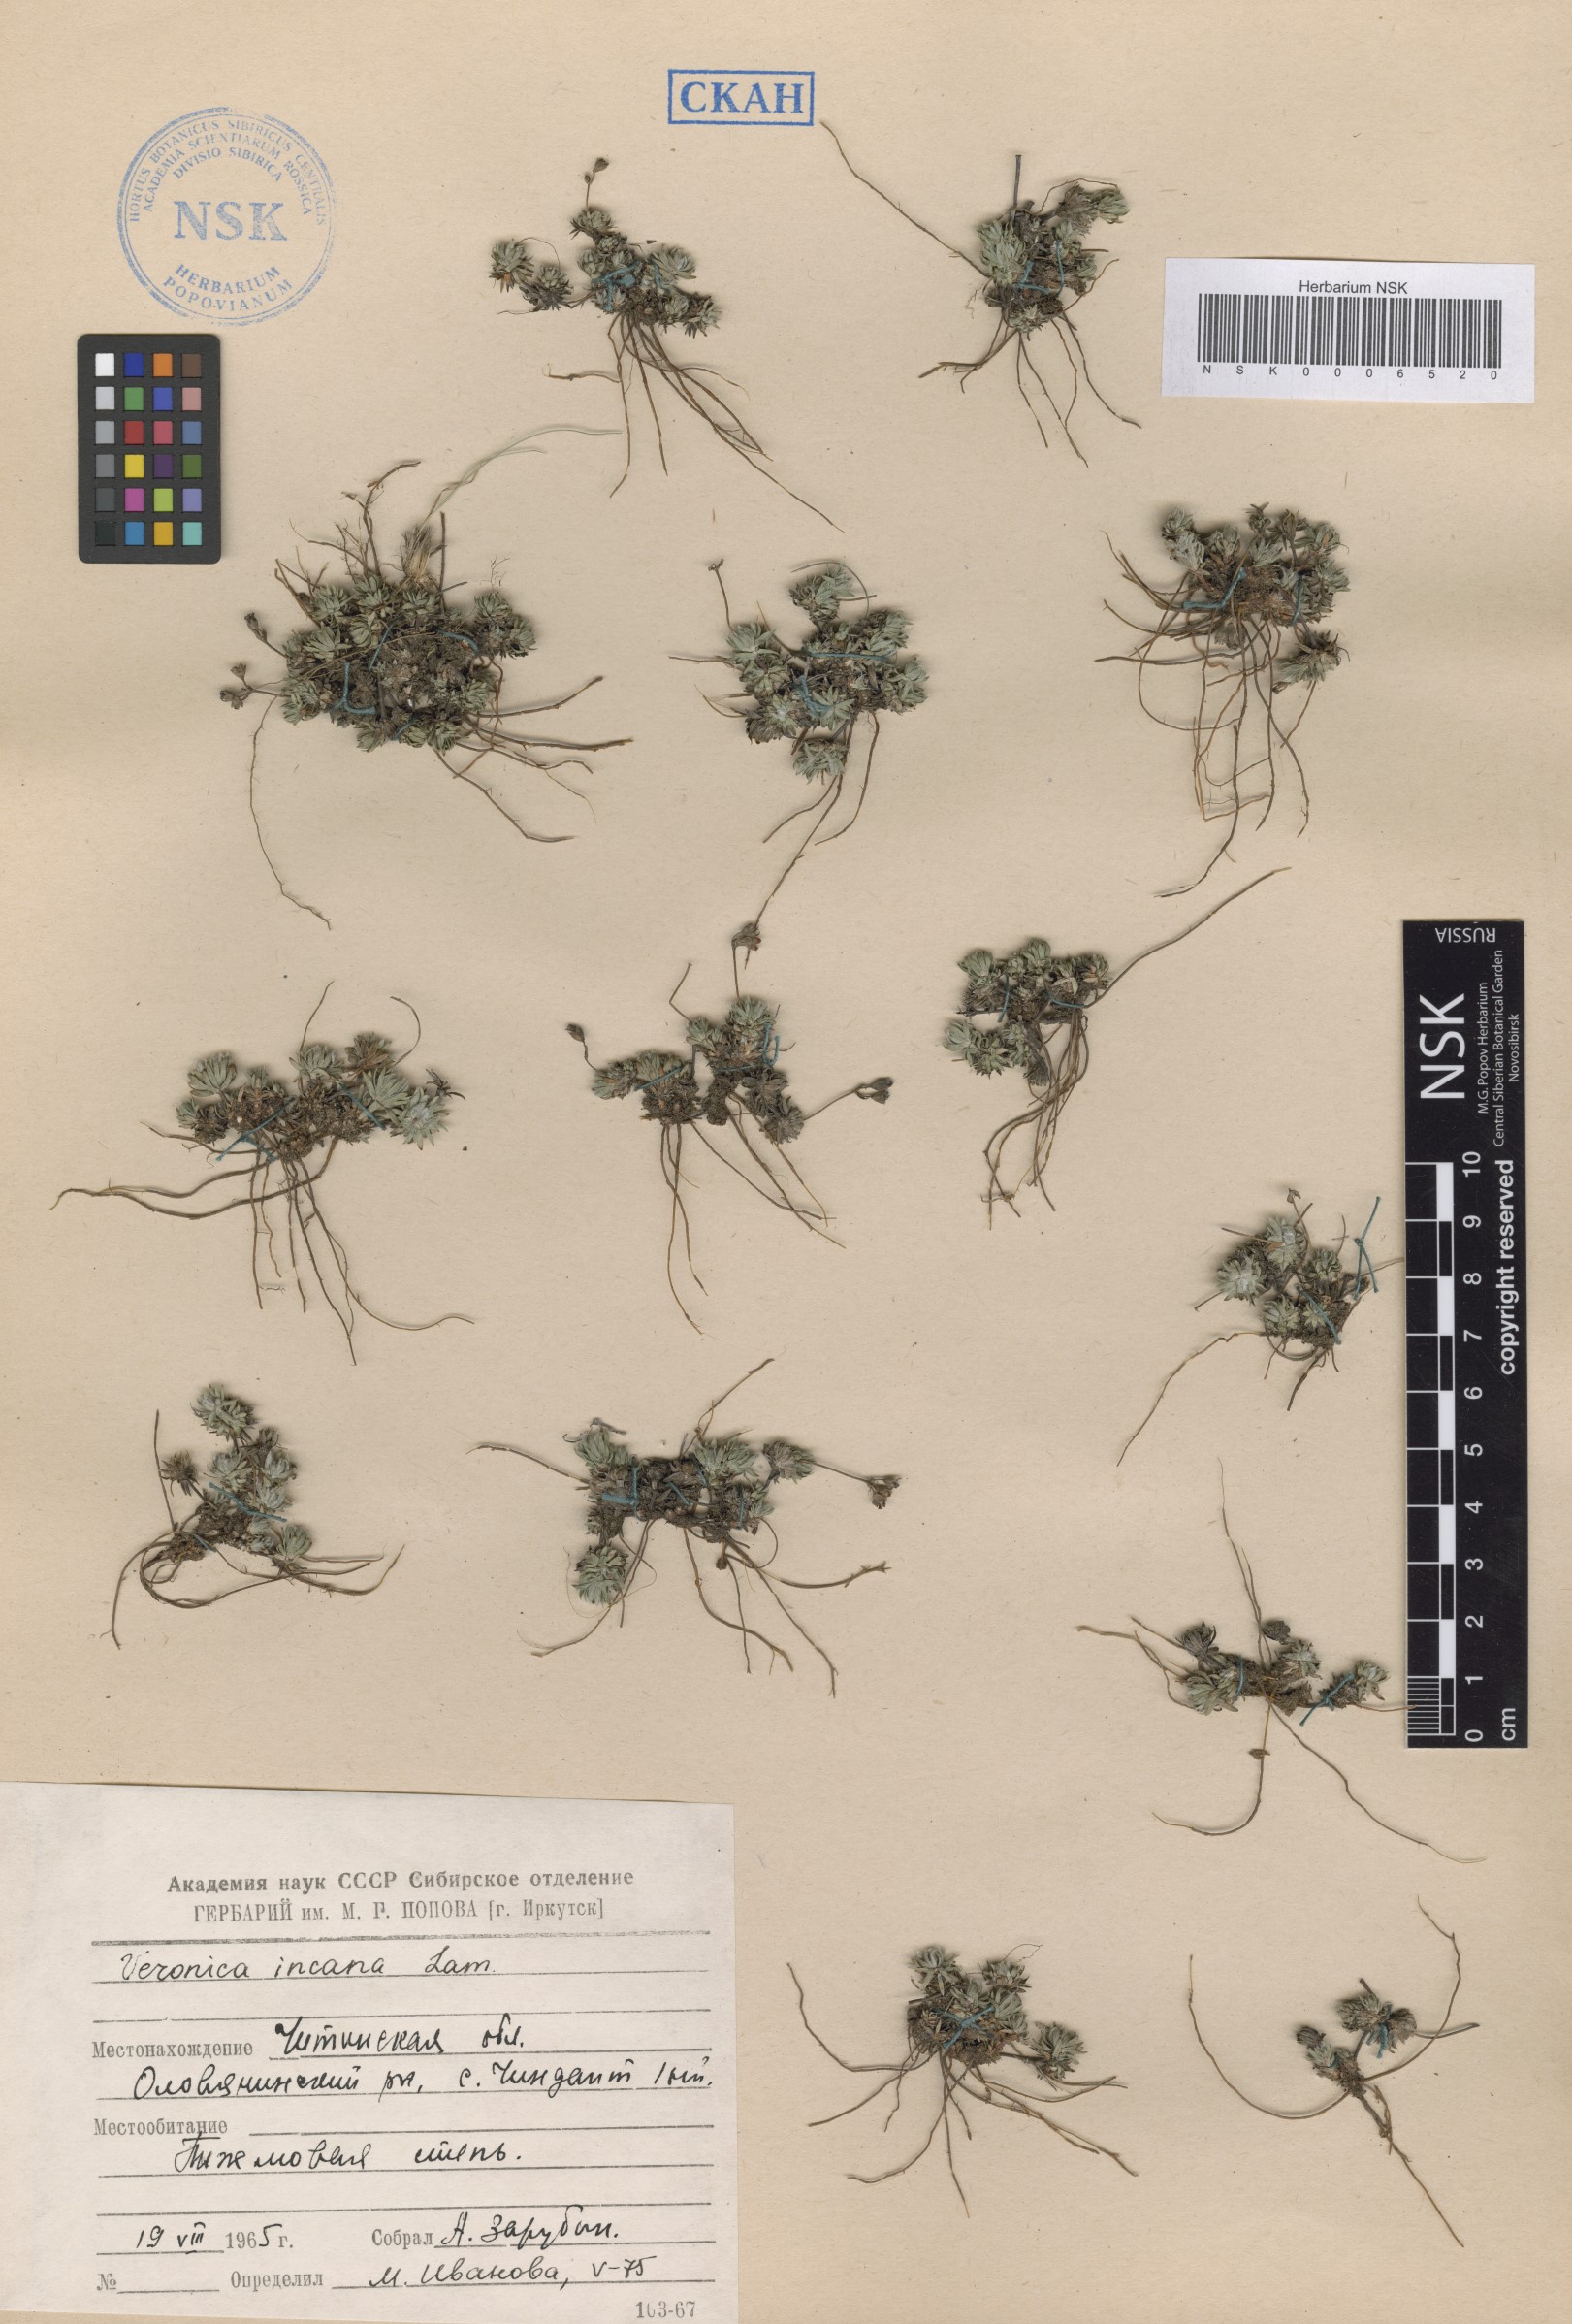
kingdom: Plantae
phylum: Tracheophyta
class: Magnoliopsida
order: Ericales
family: Primulaceae
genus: Androsace
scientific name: Androsace incana
